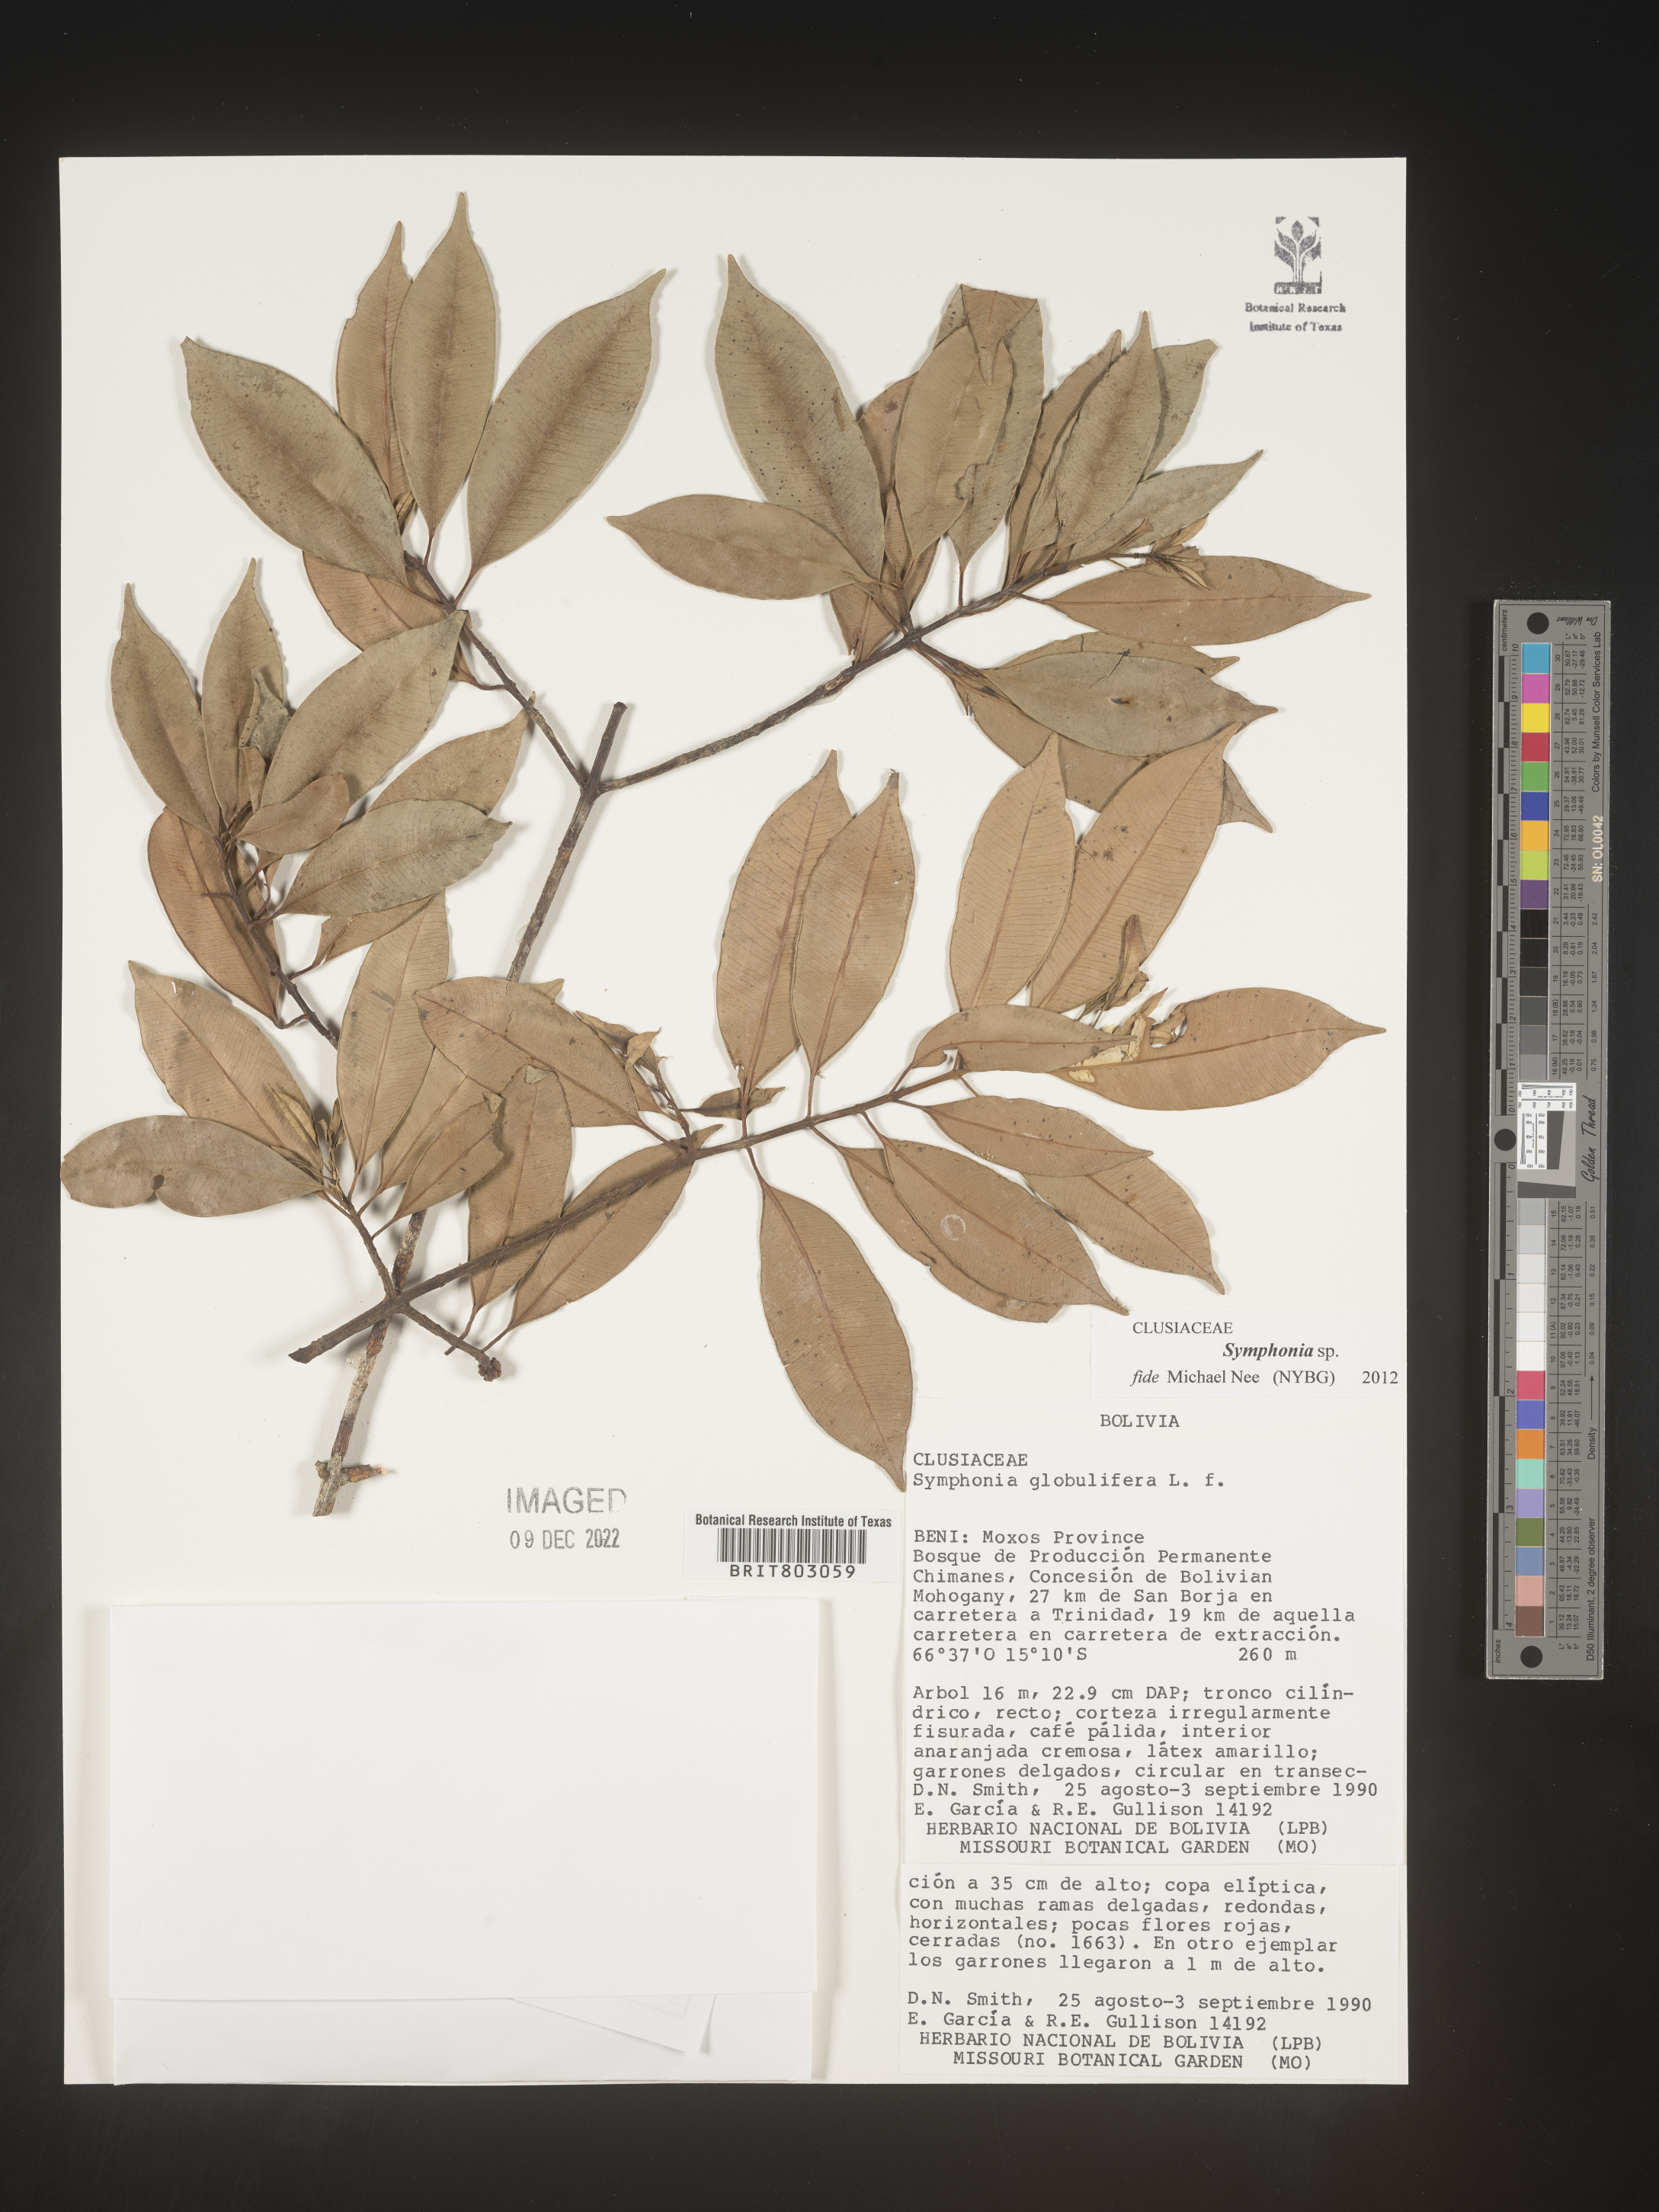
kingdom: Plantae
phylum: Tracheophyta
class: Magnoliopsida
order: Malpighiales
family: Clusiaceae
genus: Symphonia
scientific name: Symphonia
